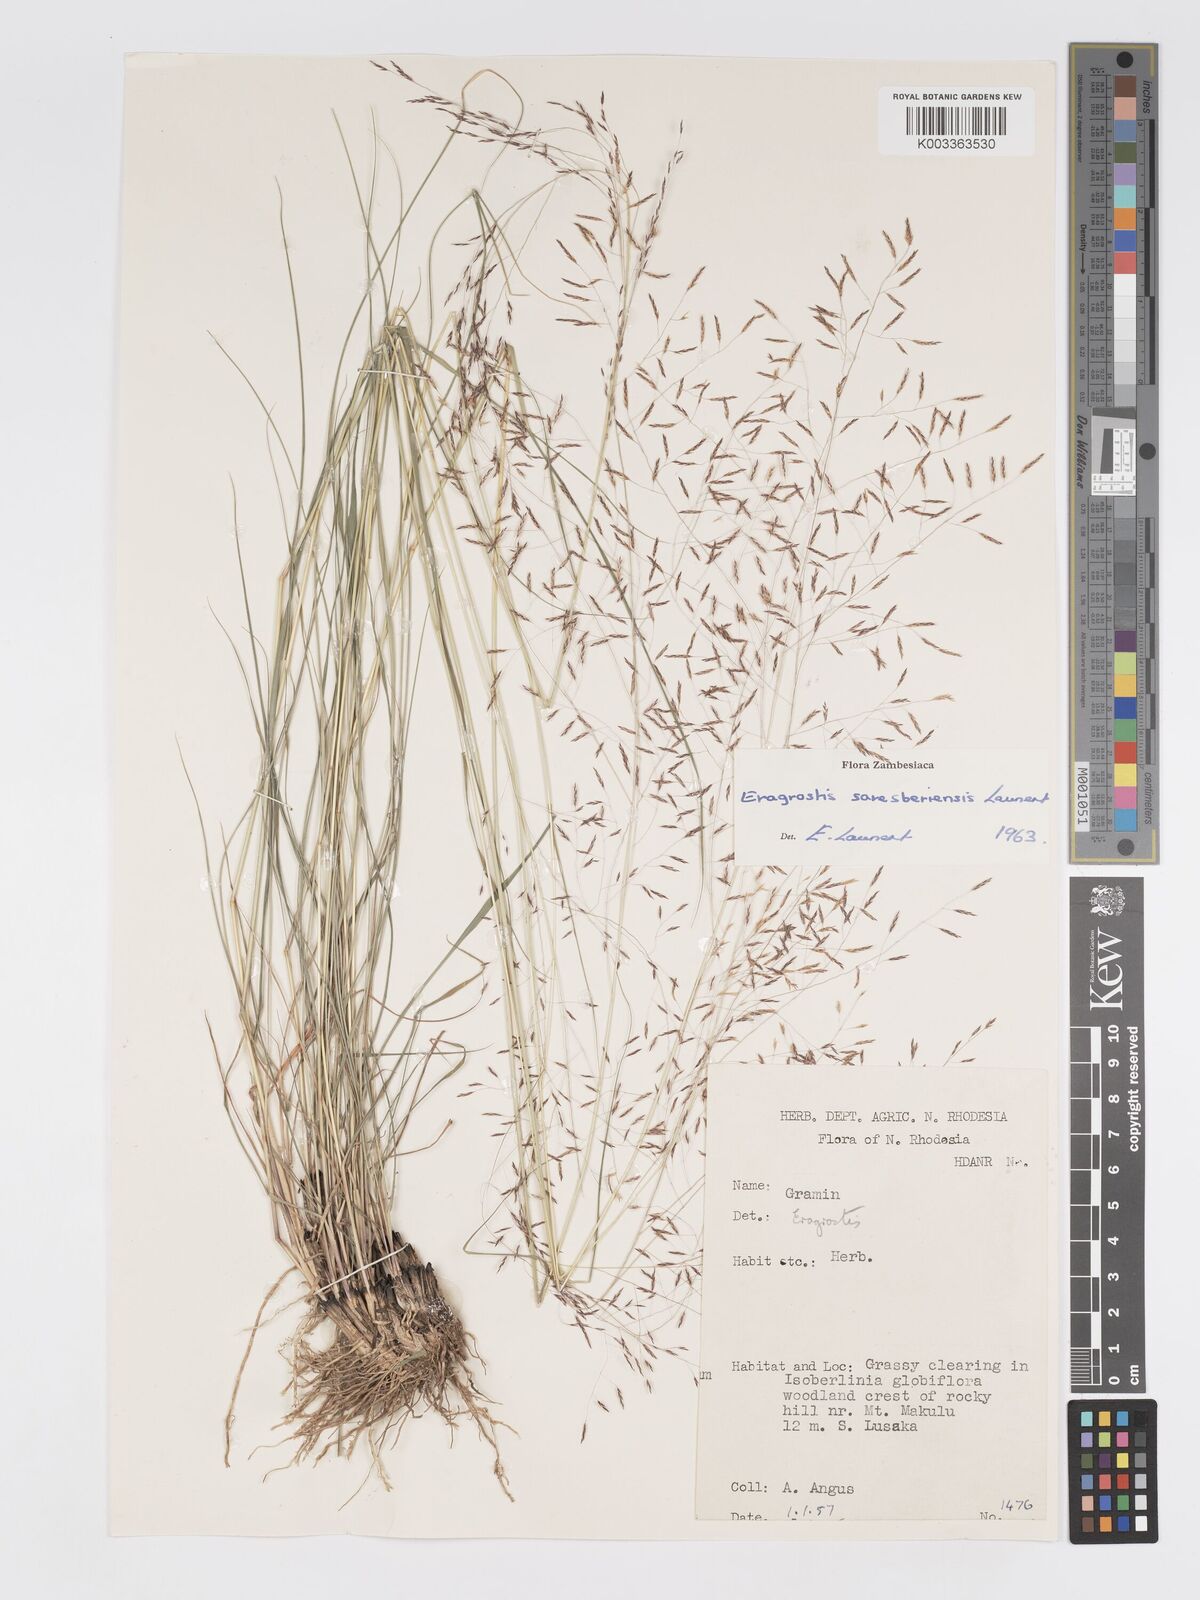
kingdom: Plantae
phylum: Tracheophyta
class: Liliopsida
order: Poales
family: Poaceae
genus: Eragrostis
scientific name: Eragrostis saresberiensis
